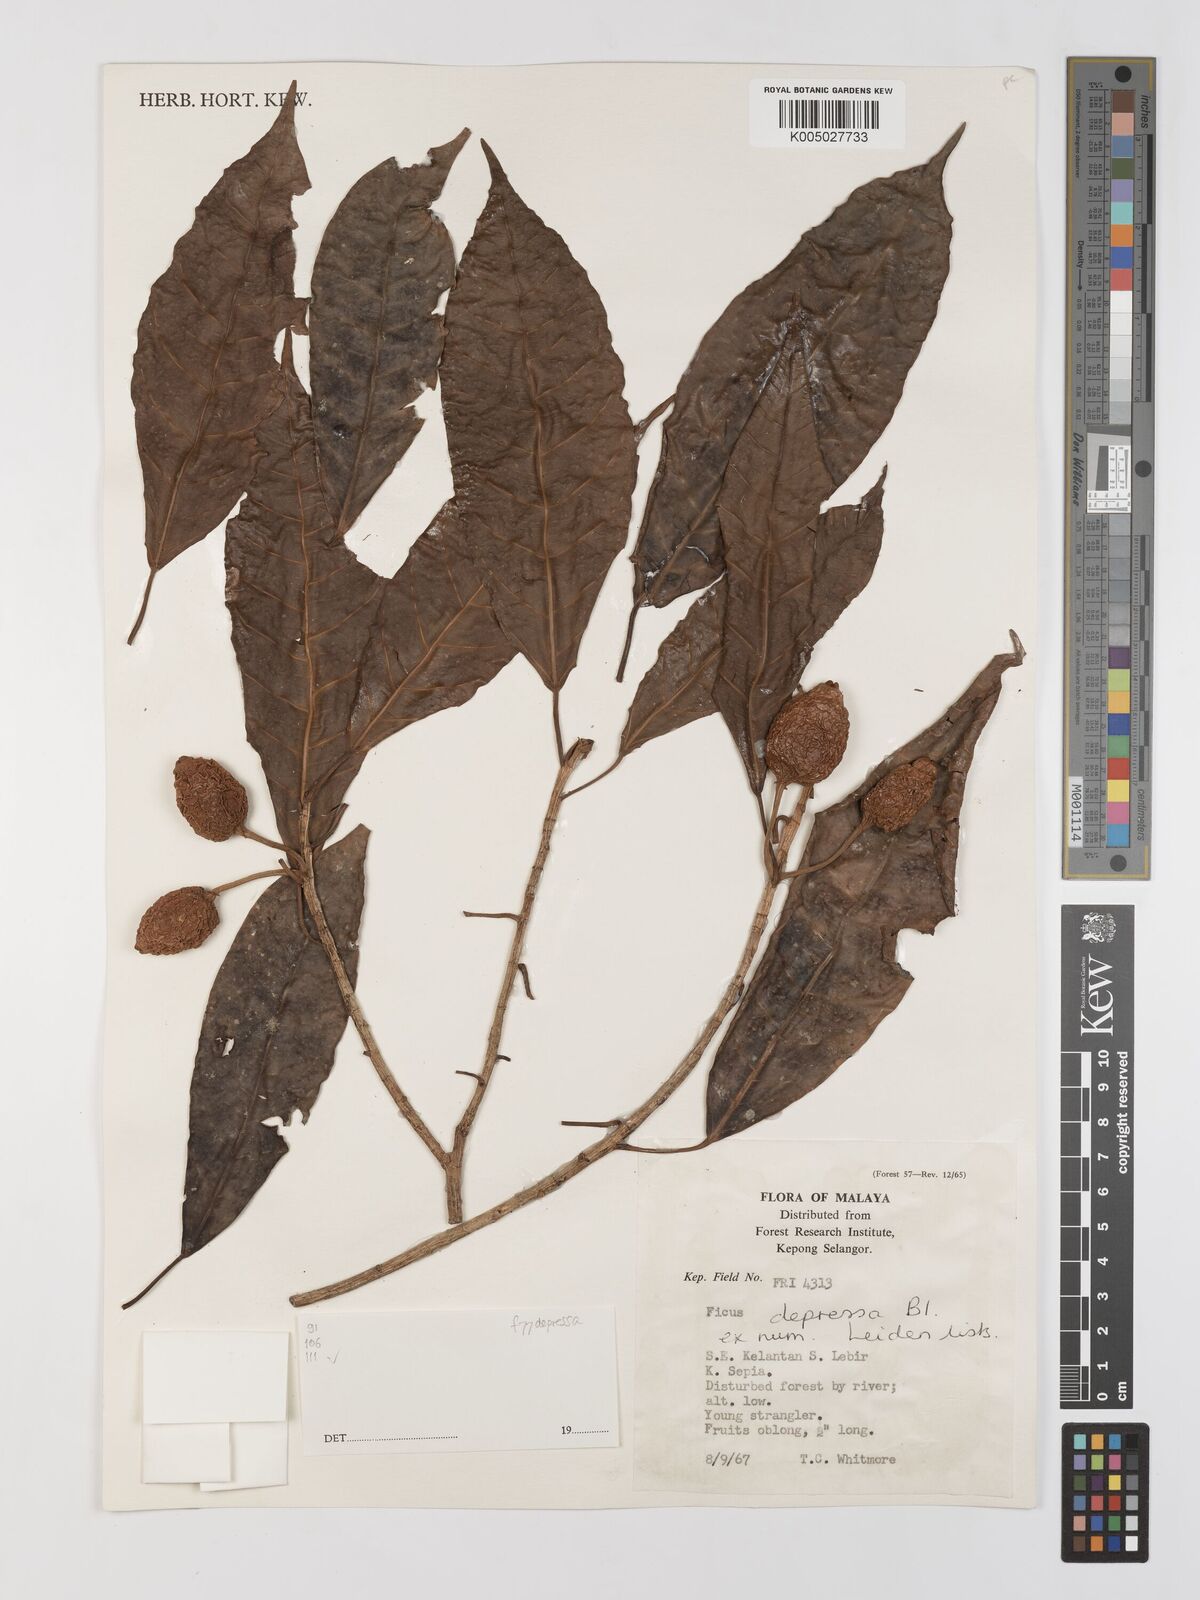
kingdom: Plantae
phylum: Tracheophyta
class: Magnoliopsida
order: Rosales
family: Moraceae
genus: Ficus
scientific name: Ficus
